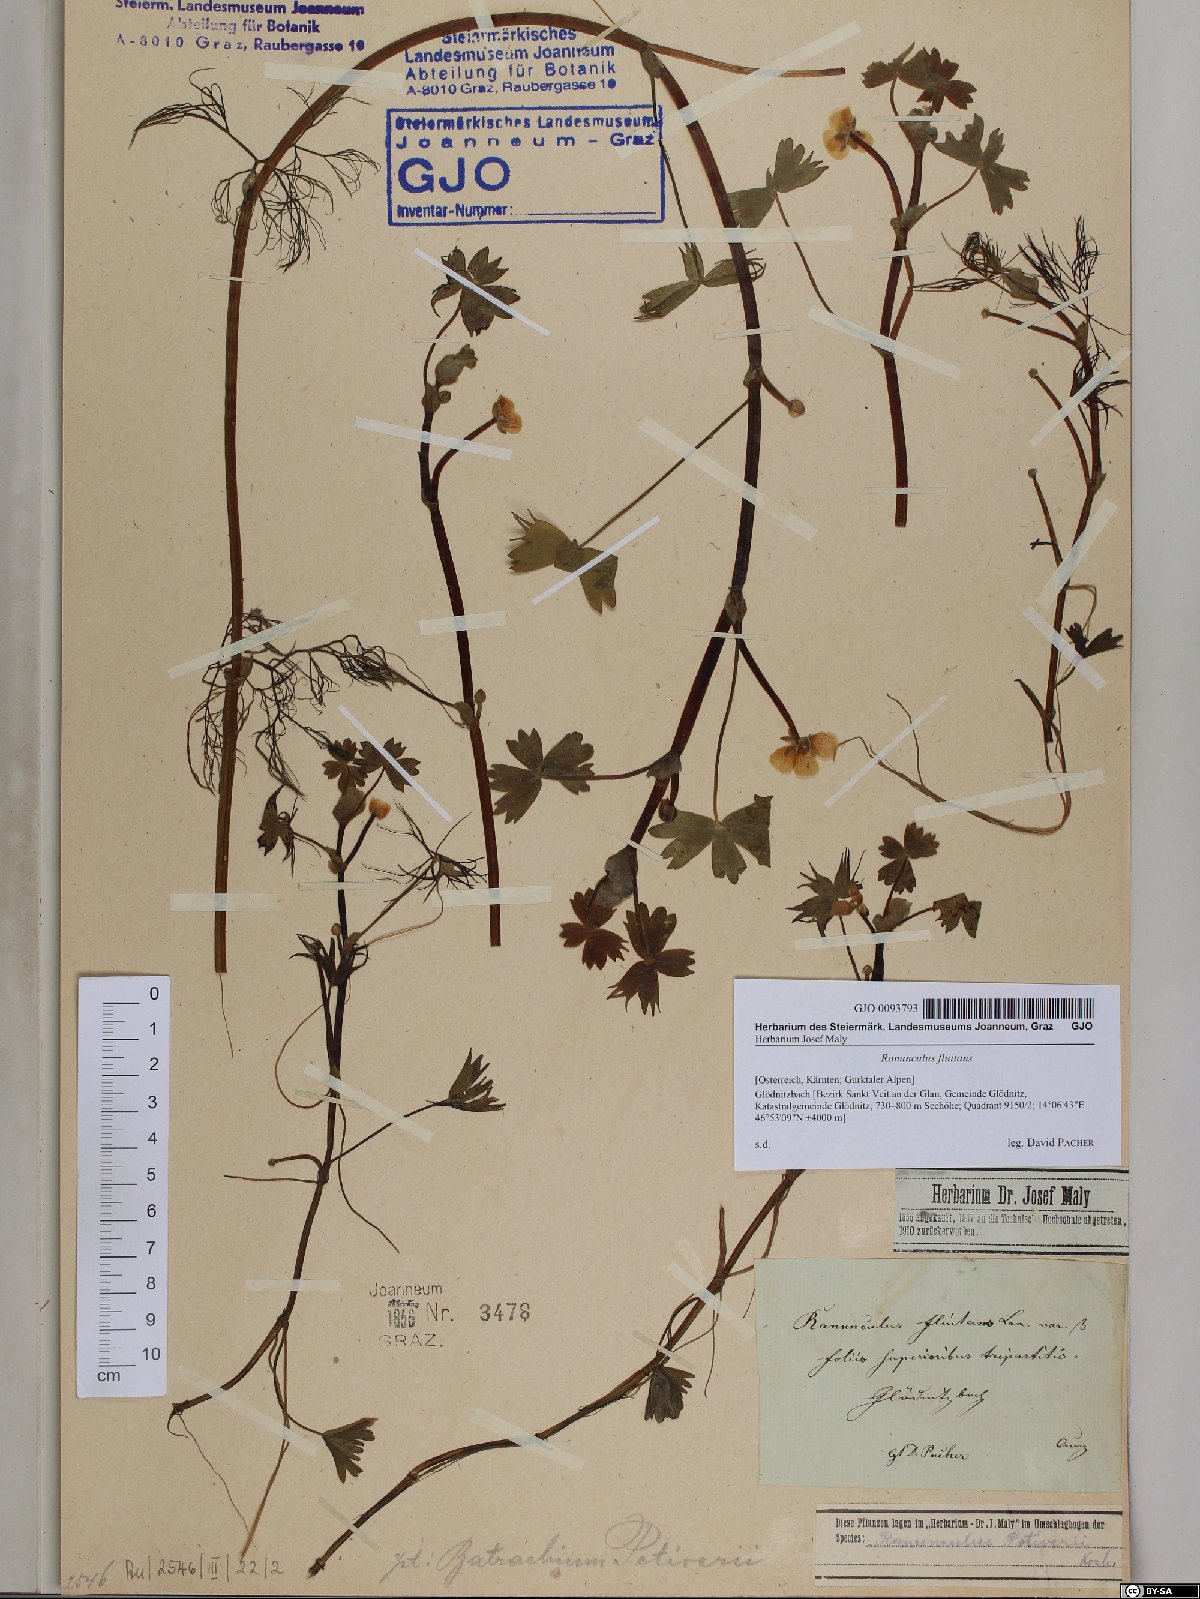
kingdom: Plantae
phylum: Tracheophyta
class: Magnoliopsida
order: Ranunculales
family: Ranunculaceae
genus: Ranunculus
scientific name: Ranunculus fluitans
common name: River water-crowfoot
